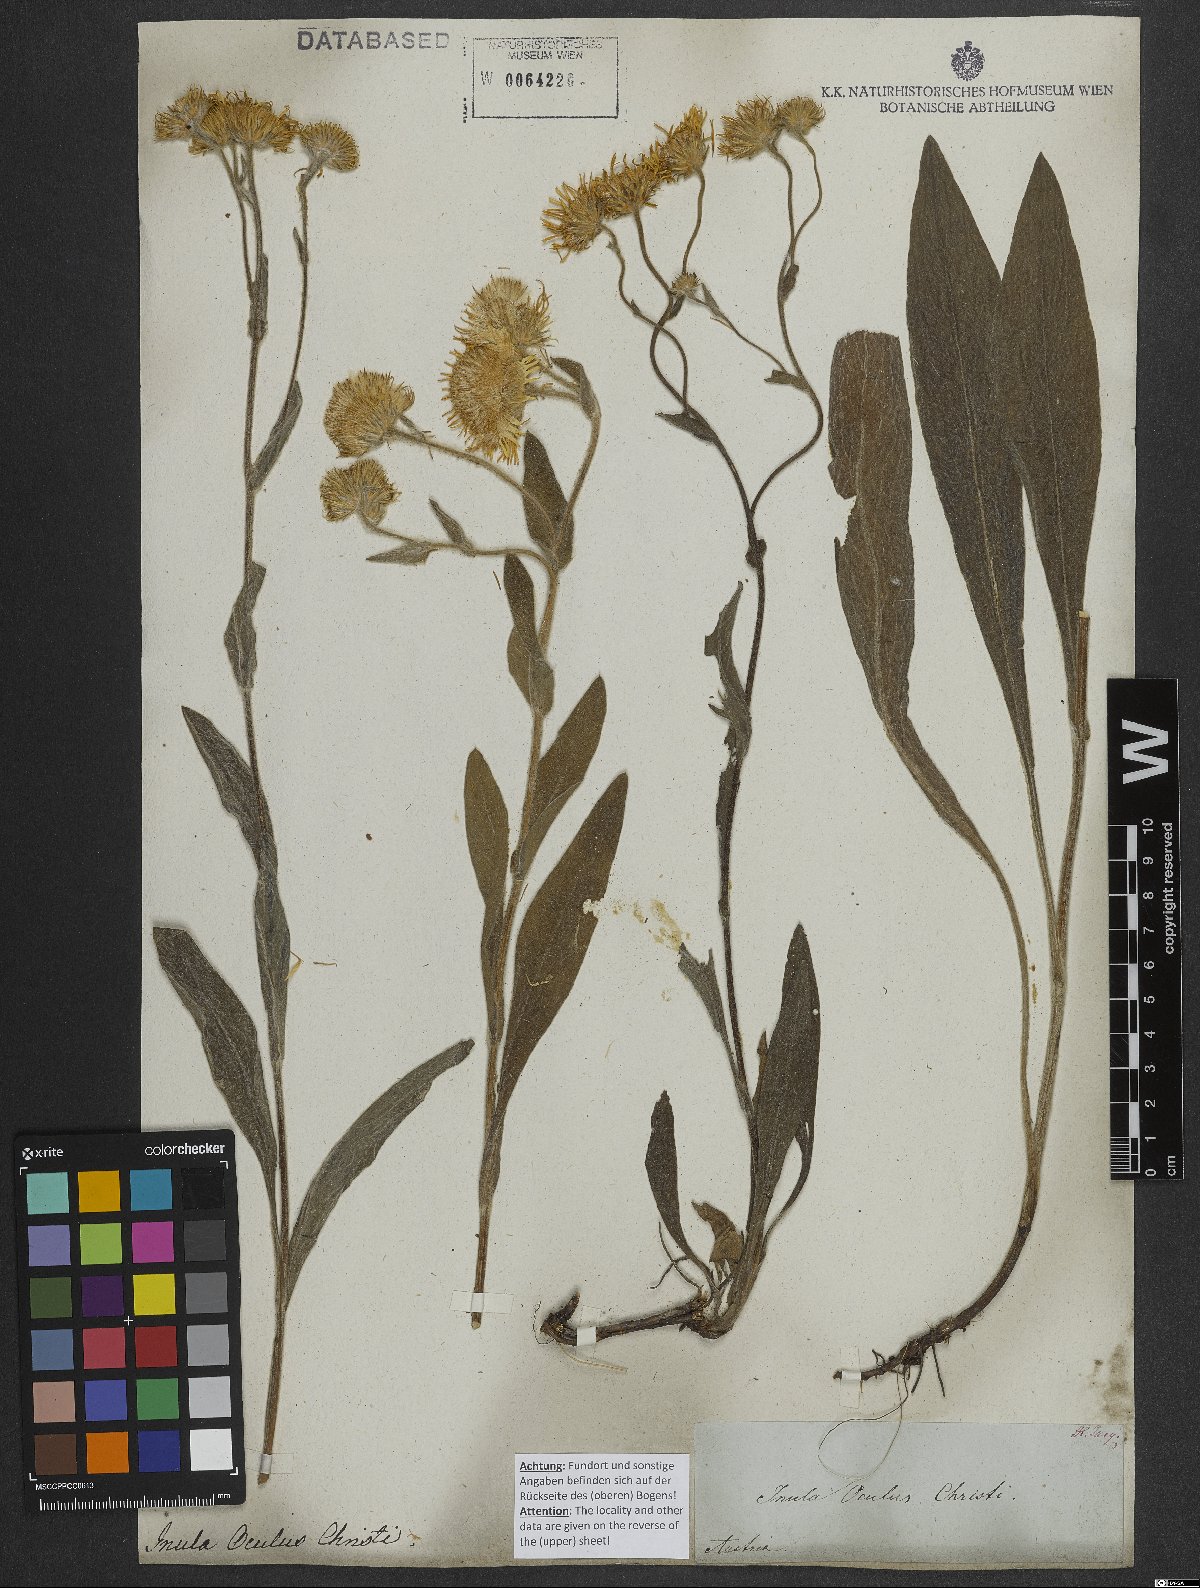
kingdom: Plantae
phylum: Tracheophyta
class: Magnoliopsida
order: Asterales
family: Asteraceae
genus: Pentanema
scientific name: Pentanema oculus-christi
